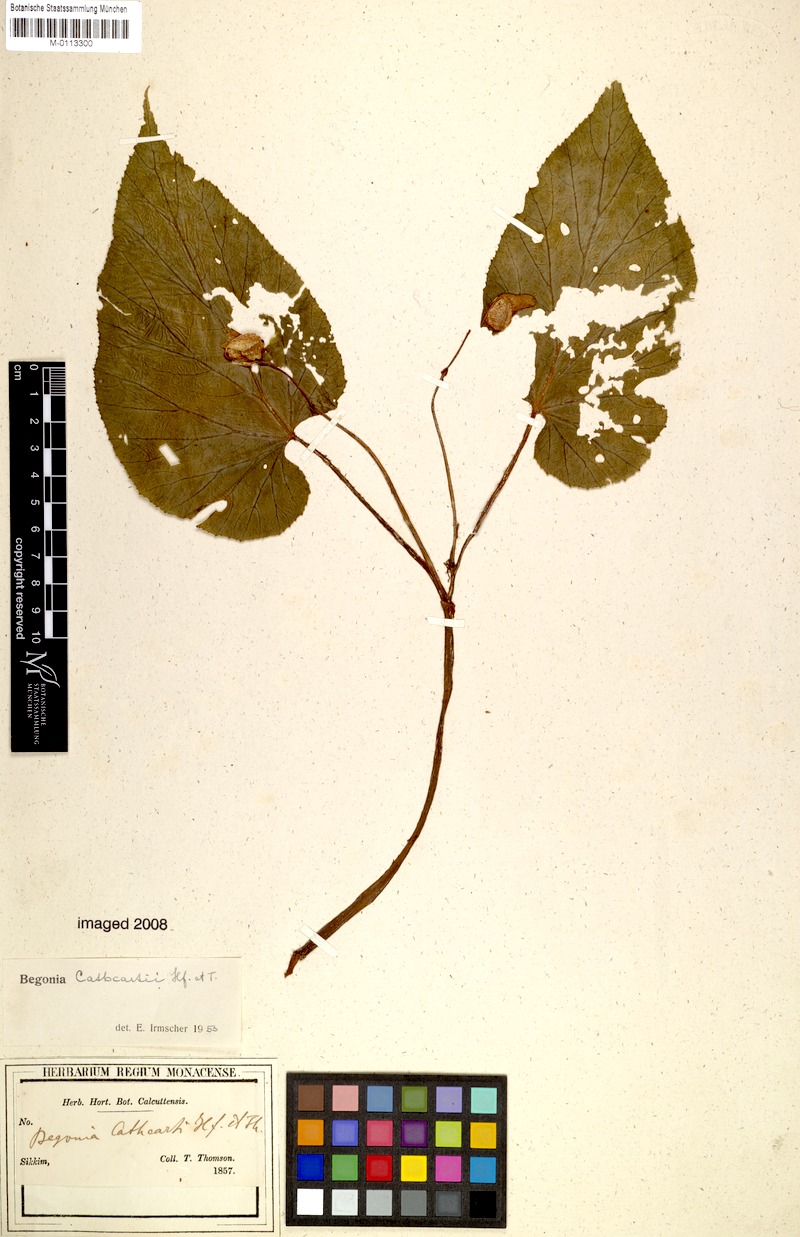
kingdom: Plantae
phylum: Tracheophyta
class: Magnoliopsida
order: Cucurbitales
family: Begoniaceae
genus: Begonia
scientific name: Begonia cathcartii
